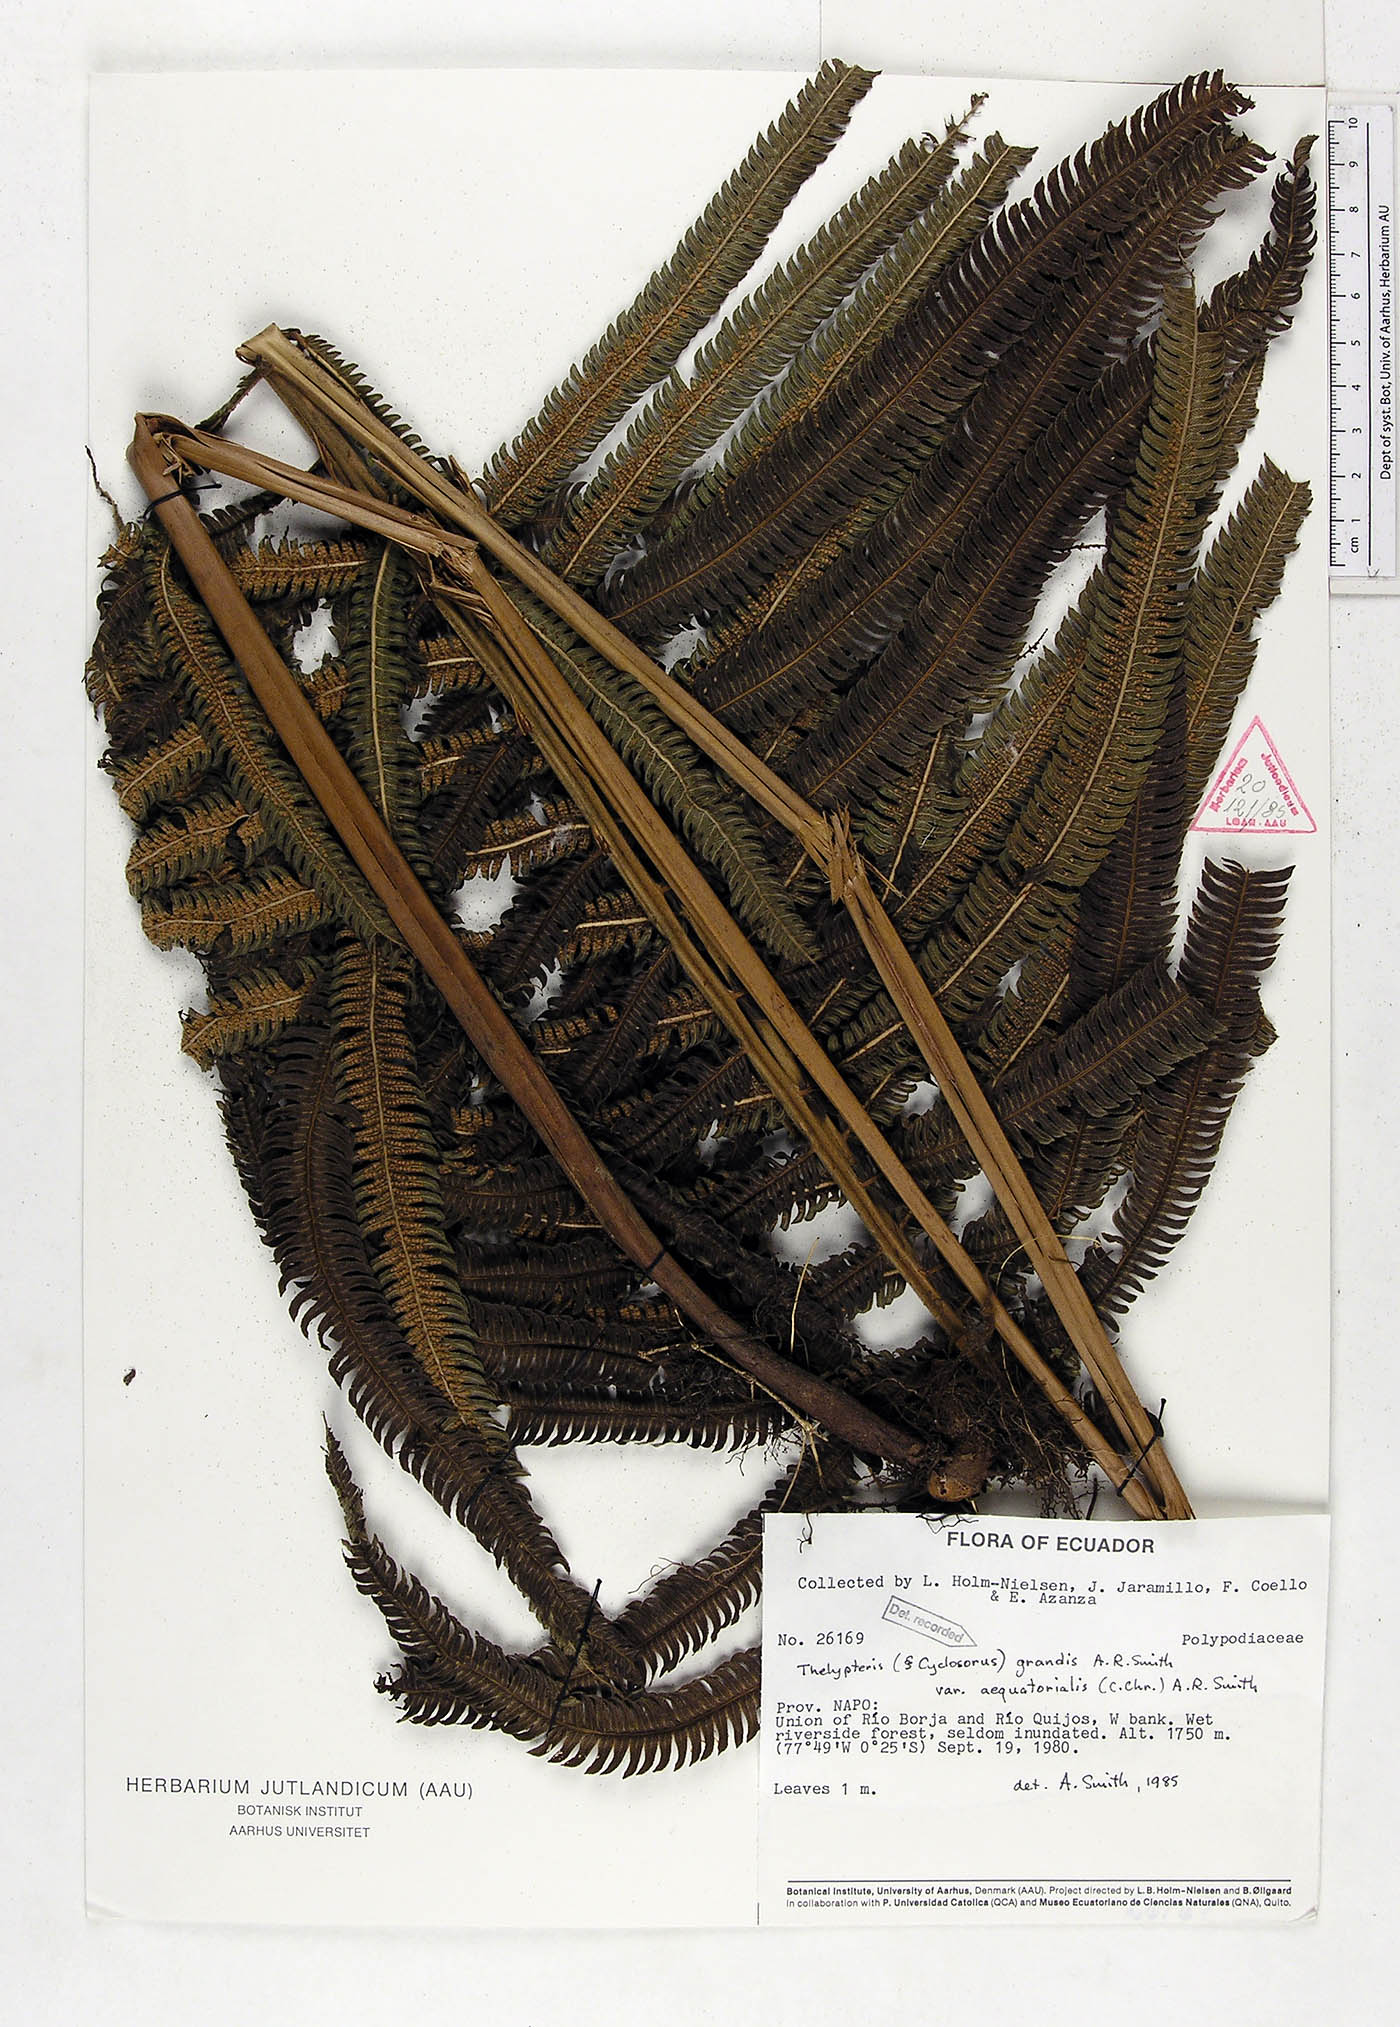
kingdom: Plantae
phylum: Tracheophyta
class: Polypodiopsida
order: Polypodiales
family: Thelypteridaceae
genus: Pelazoneuron
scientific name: Pelazoneuron abruptum
